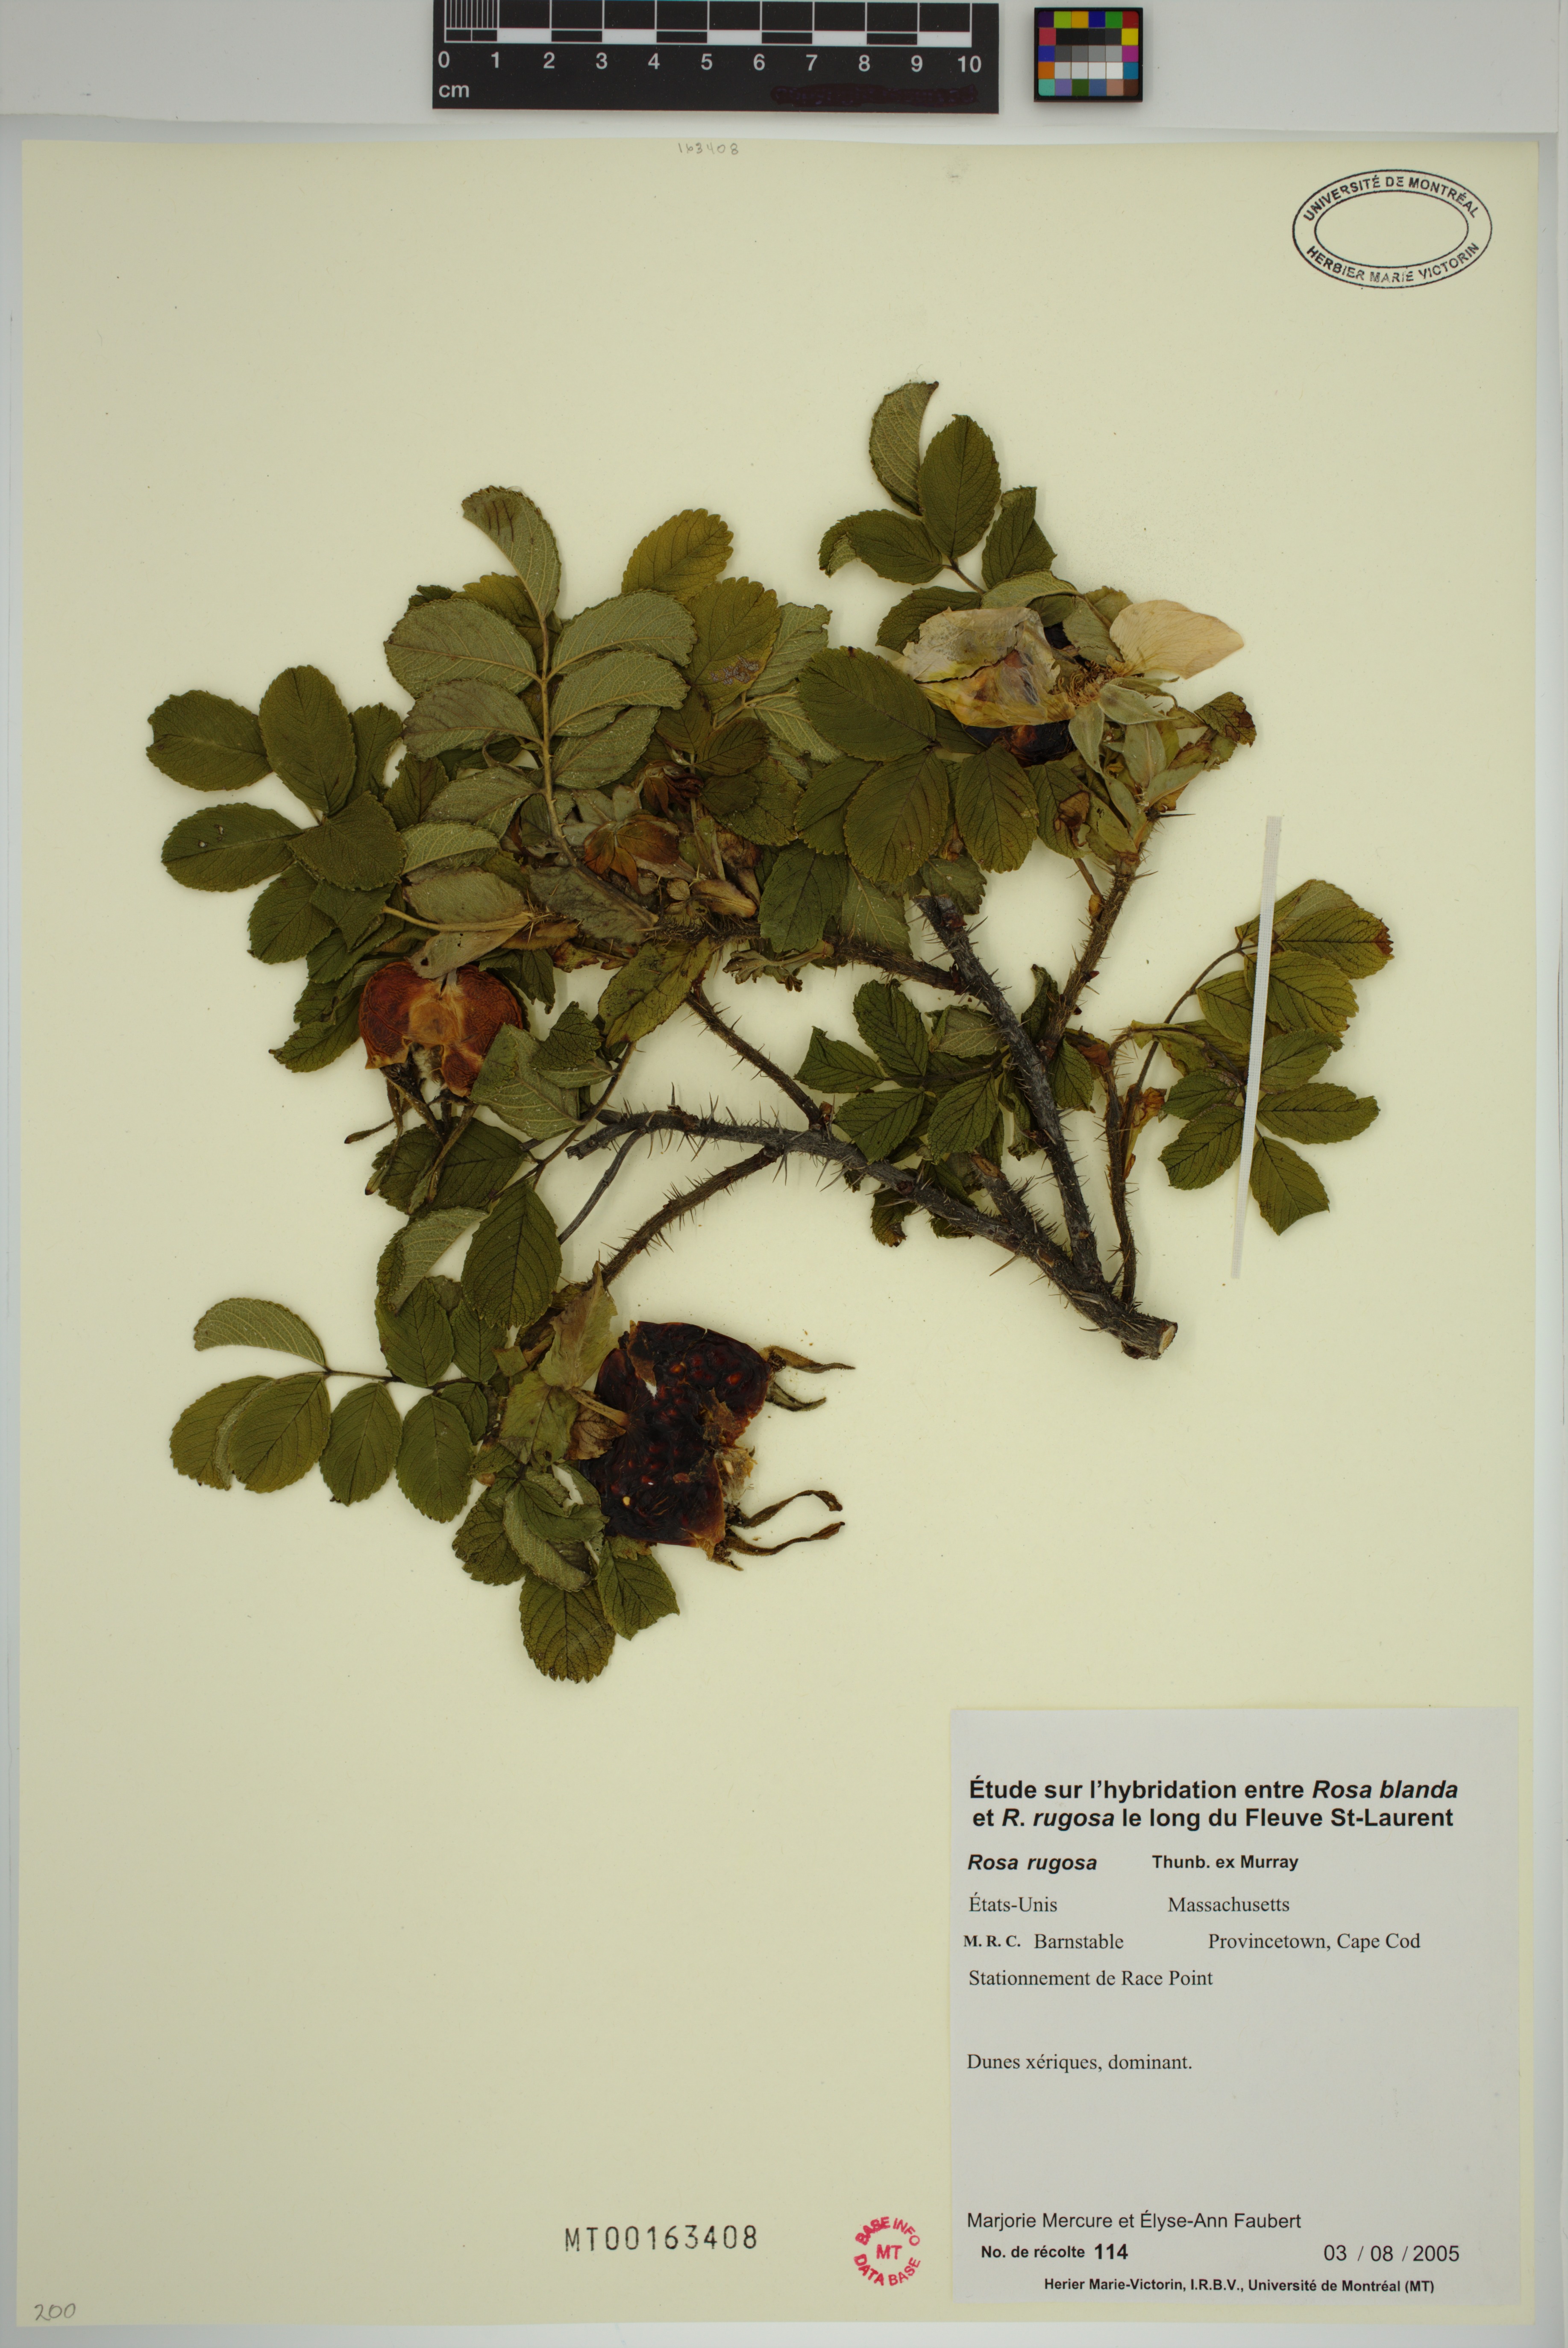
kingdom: Plantae
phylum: Tracheophyta
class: Magnoliopsida
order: Rosales
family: Rosaceae
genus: Rosa
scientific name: Rosa rugosa
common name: Japanese rose
